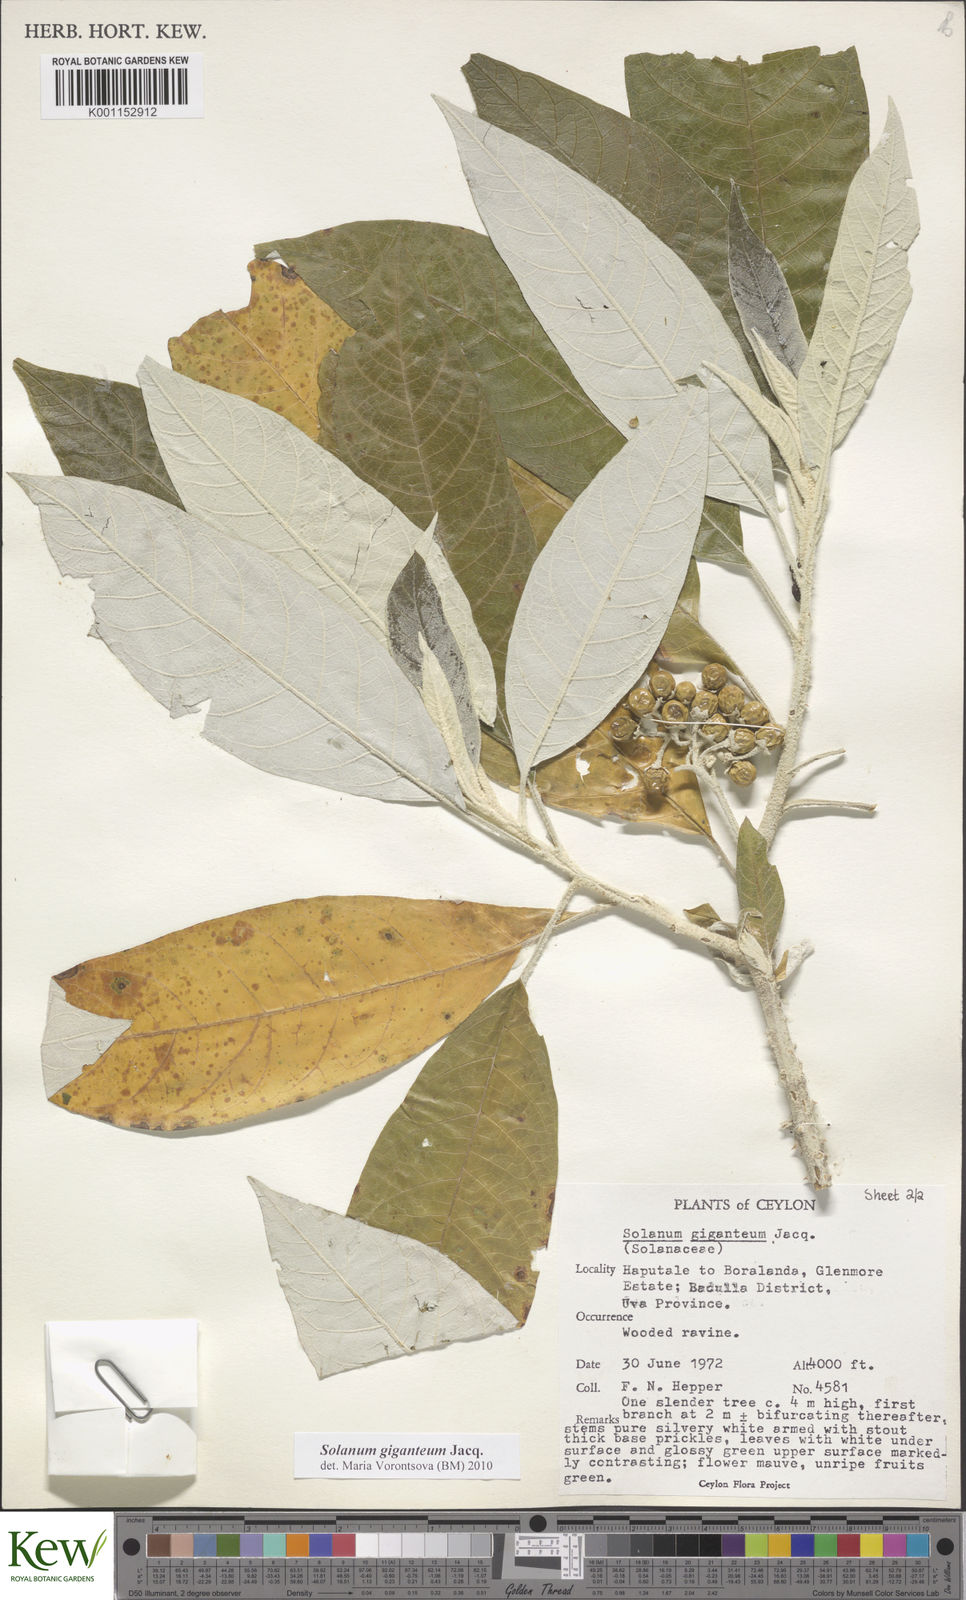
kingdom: Plantae
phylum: Tracheophyta
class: Magnoliopsida
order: Solanales
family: Solanaceae
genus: Solanum
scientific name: Solanum giganteum
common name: Healing-leaf-tree
